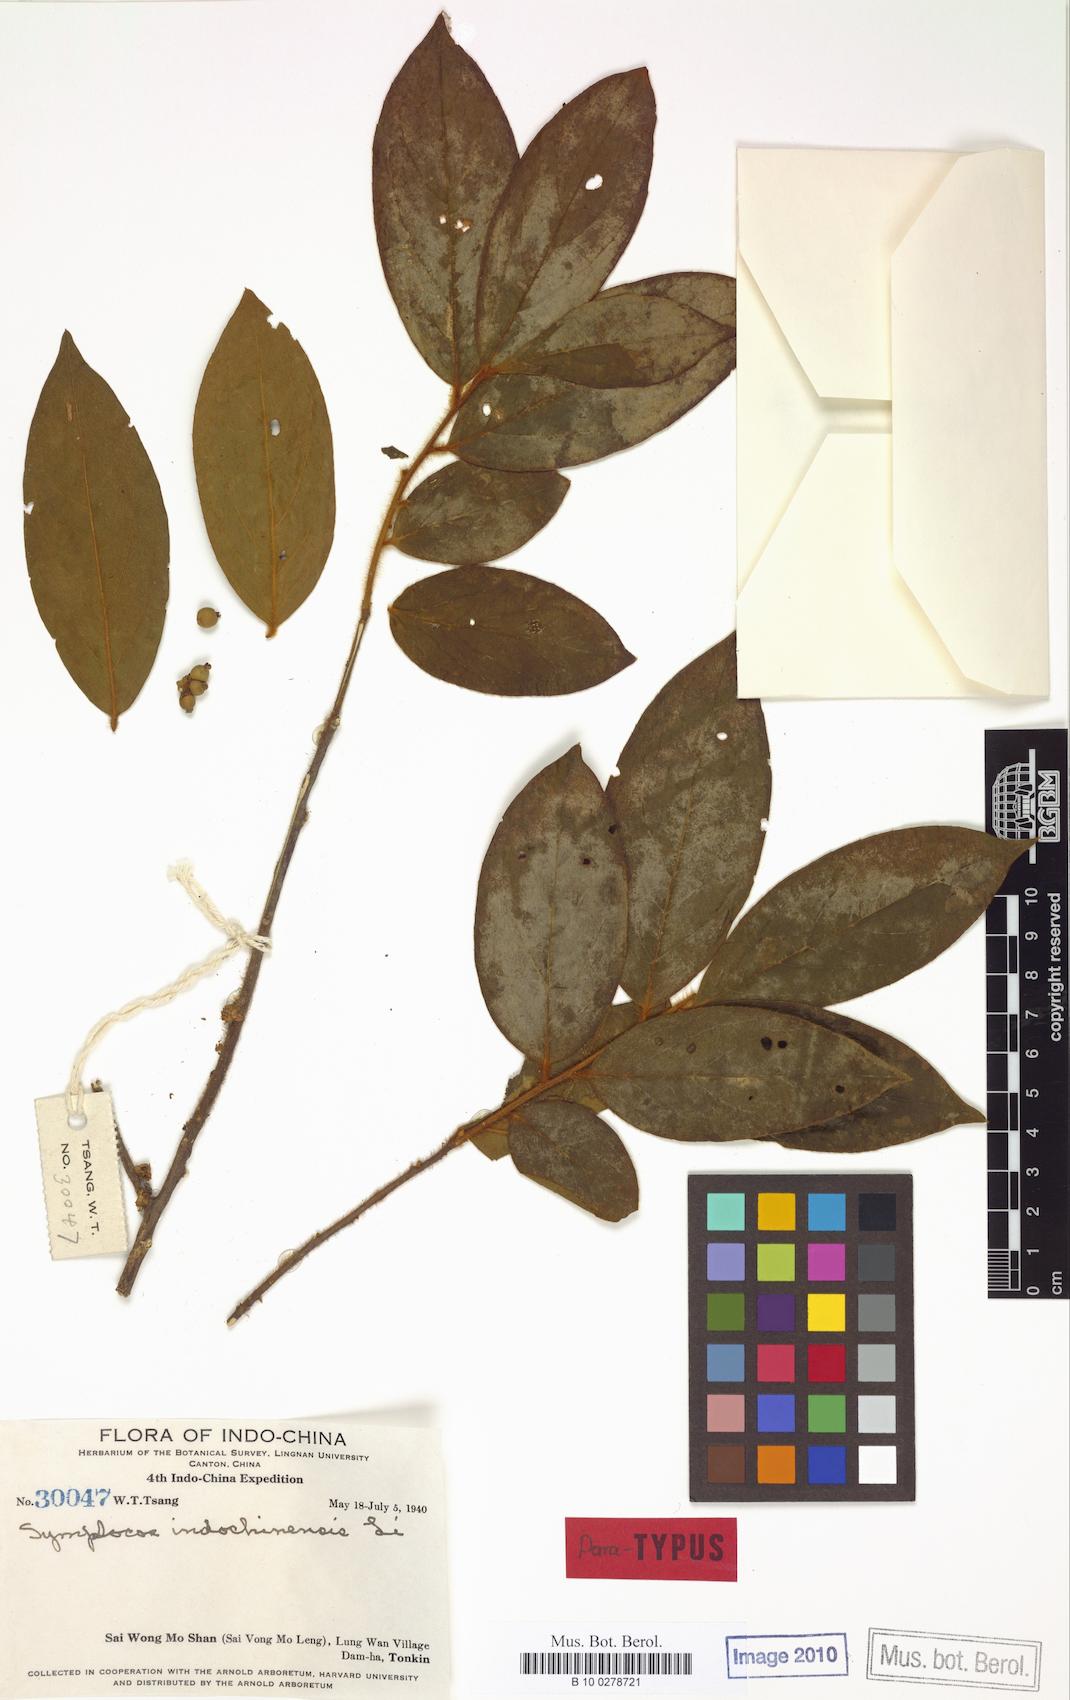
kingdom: Plantae
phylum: Tracheophyta
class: Magnoliopsida
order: Ericales
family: Symplocaceae
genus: Symplocos
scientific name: Symplocos dolichotricha
